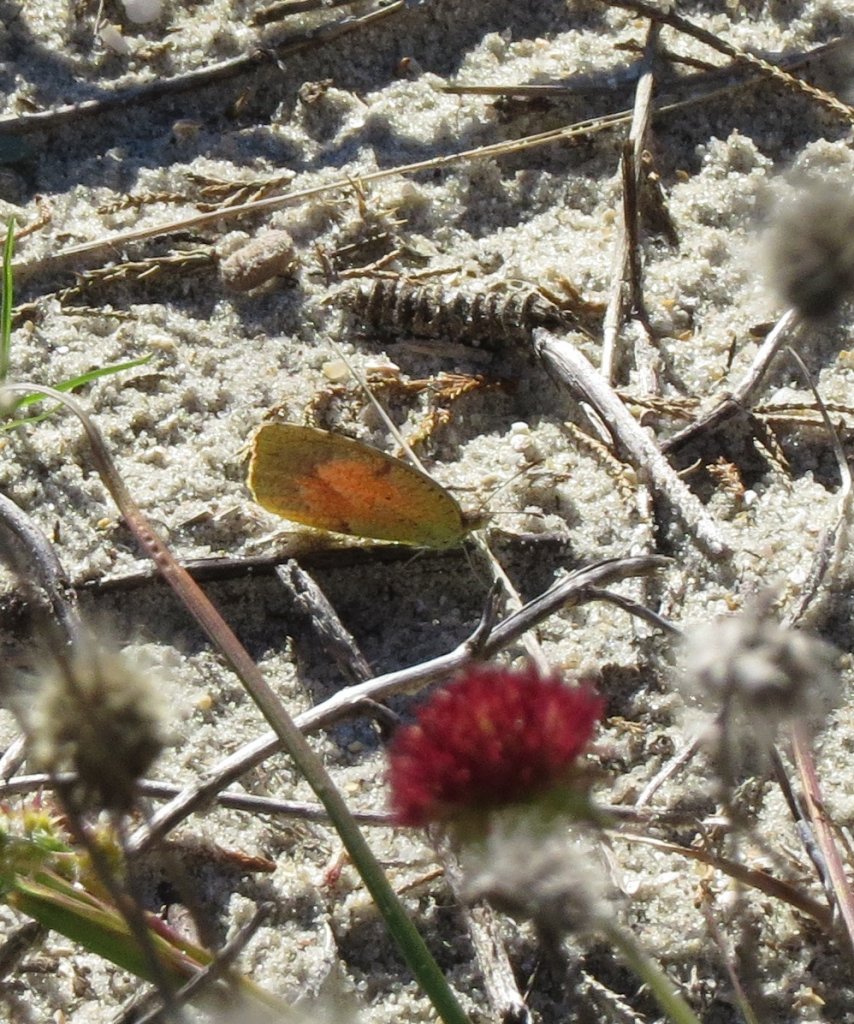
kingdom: Animalia
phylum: Arthropoda
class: Insecta
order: Lepidoptera
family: Pieridae
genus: Abaeis
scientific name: Abaeis nicippe
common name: Sleepy Orange
